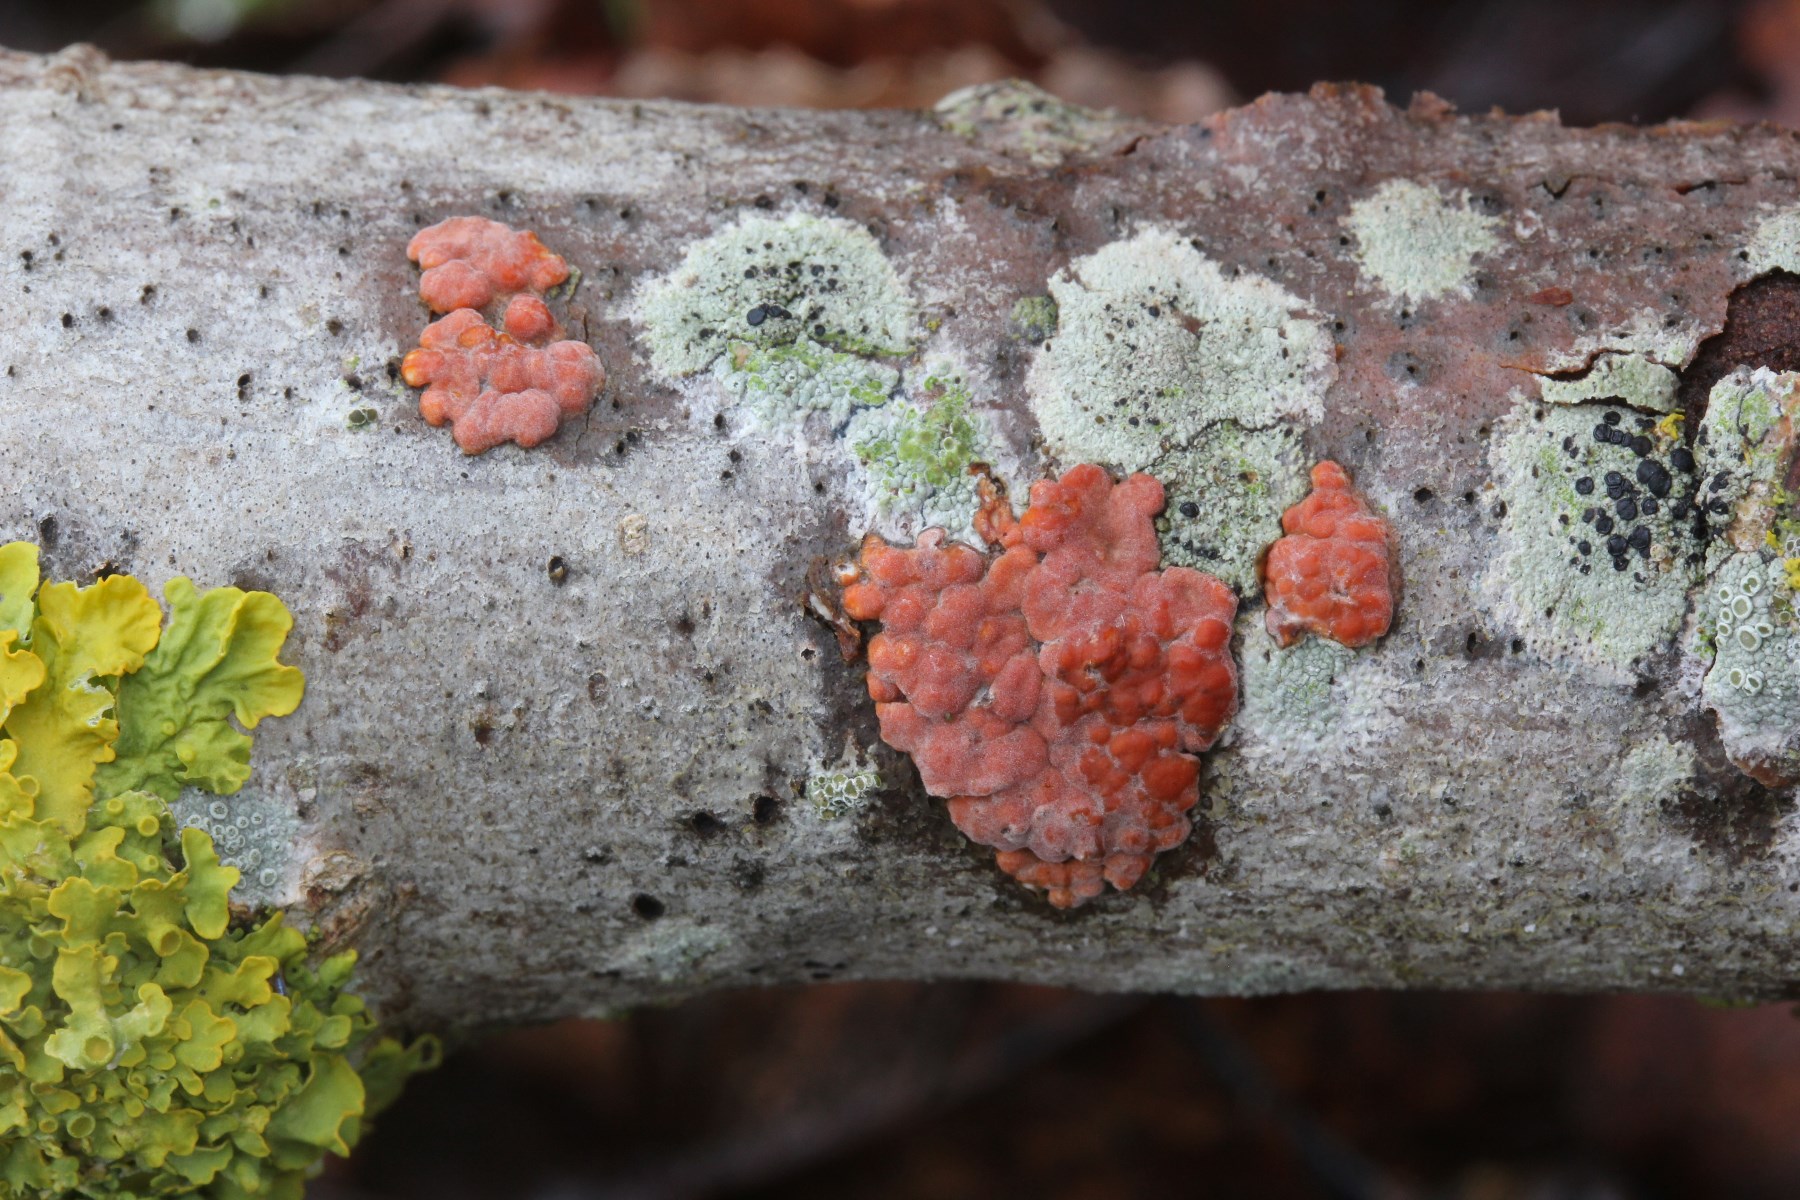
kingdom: Fungi
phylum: Basidiomycota
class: Agaricomycetes
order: Russulales
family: Peniophoraceae
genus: Peniophora
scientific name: Peniophora polygonia
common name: polygon-voksskind
